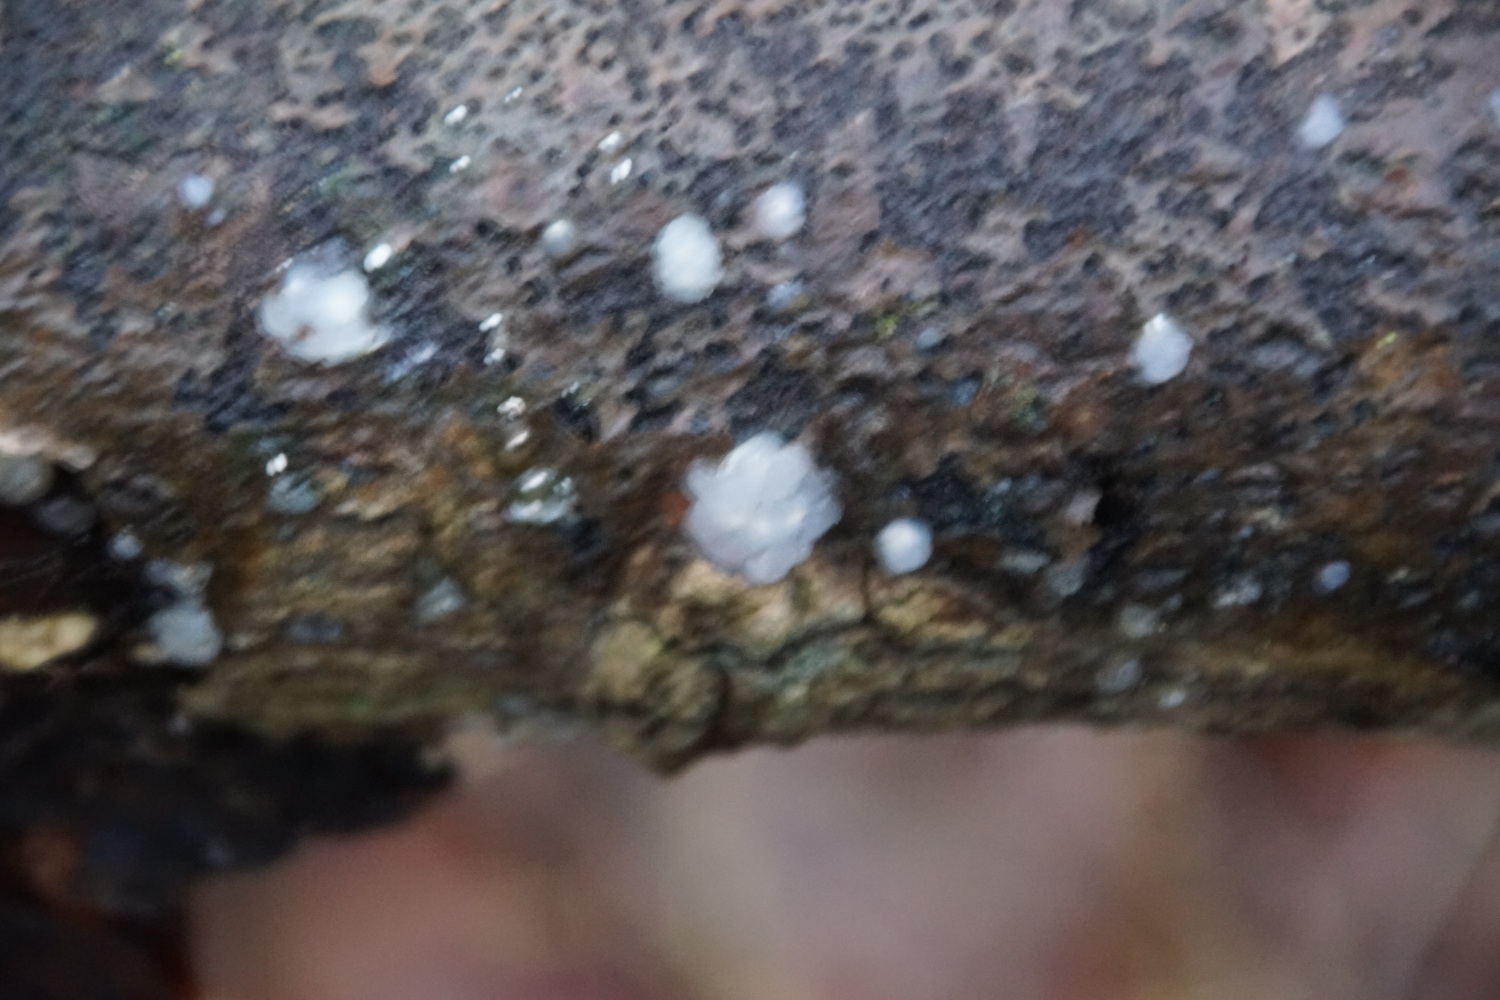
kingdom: Fungi
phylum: Basidiomycota
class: Agaricomycetes
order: Auriculariales
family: Hyaloriaceae
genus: Myxarium
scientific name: Myxarium nucleatum
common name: klar bævretop
